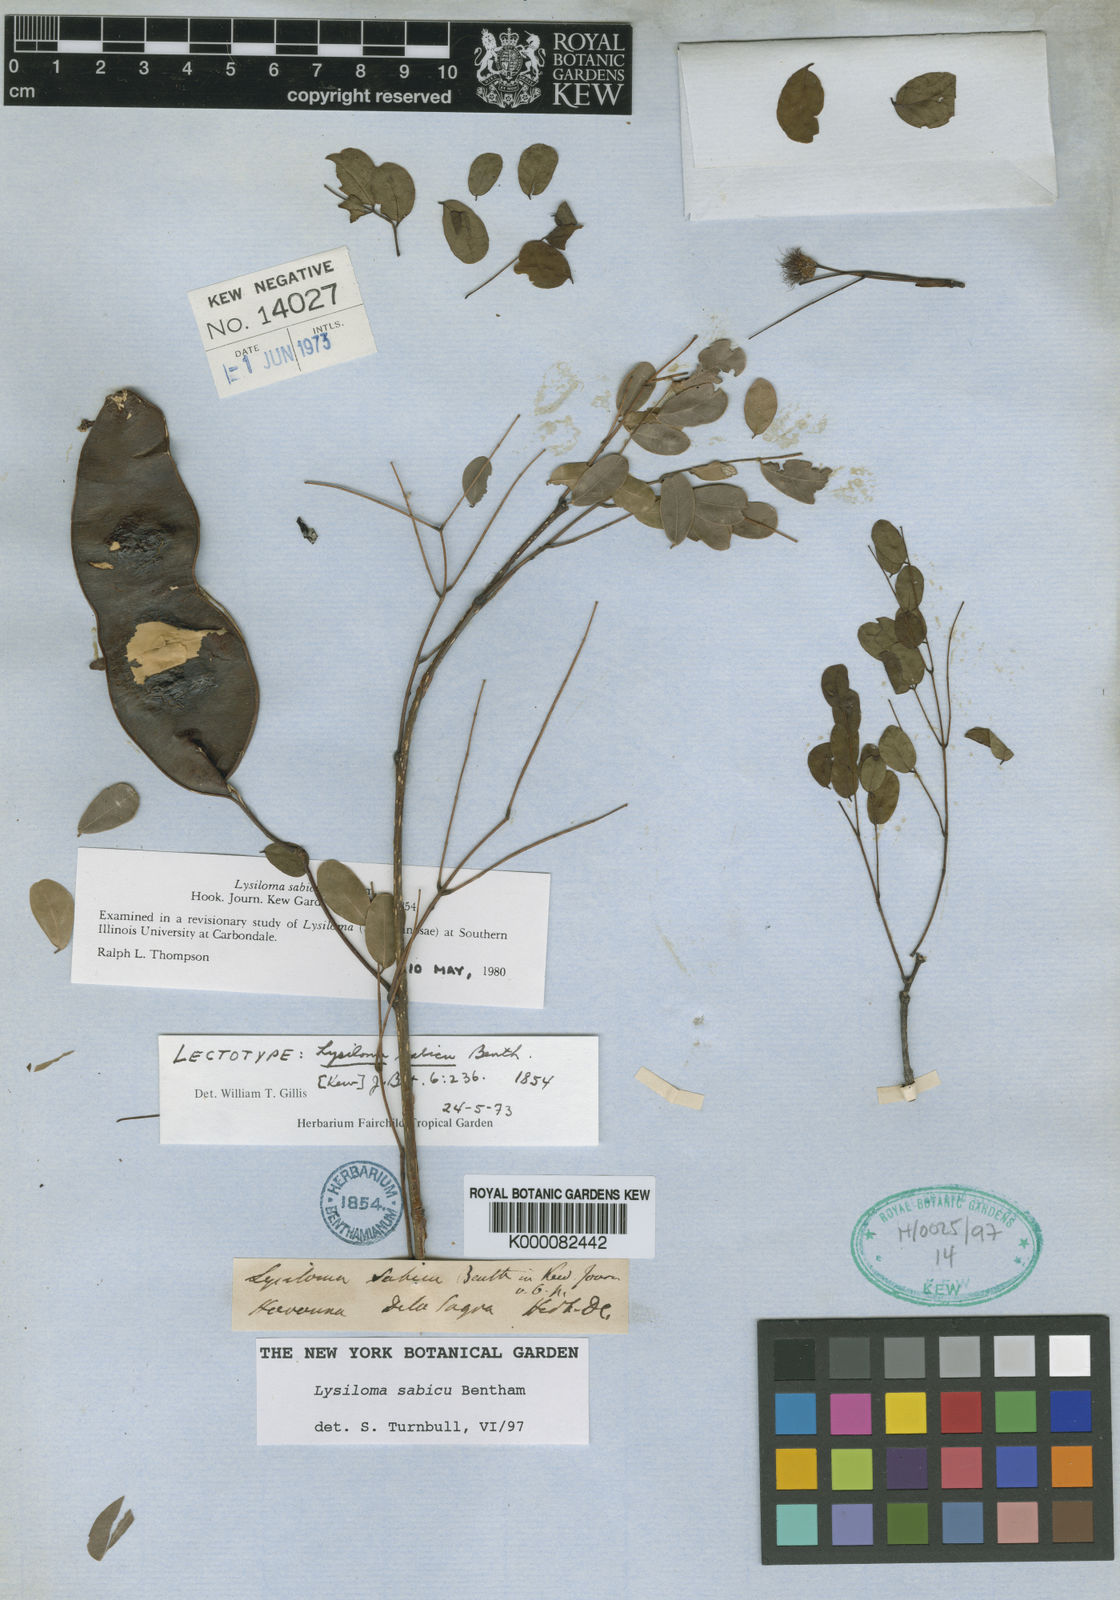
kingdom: Plantae
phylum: Tracheophyta
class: Magnoliopsida
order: Fabales
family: Fabaceae
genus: Lysiloma
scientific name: Lysiloma sabicu
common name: Horseflesh mahogany
